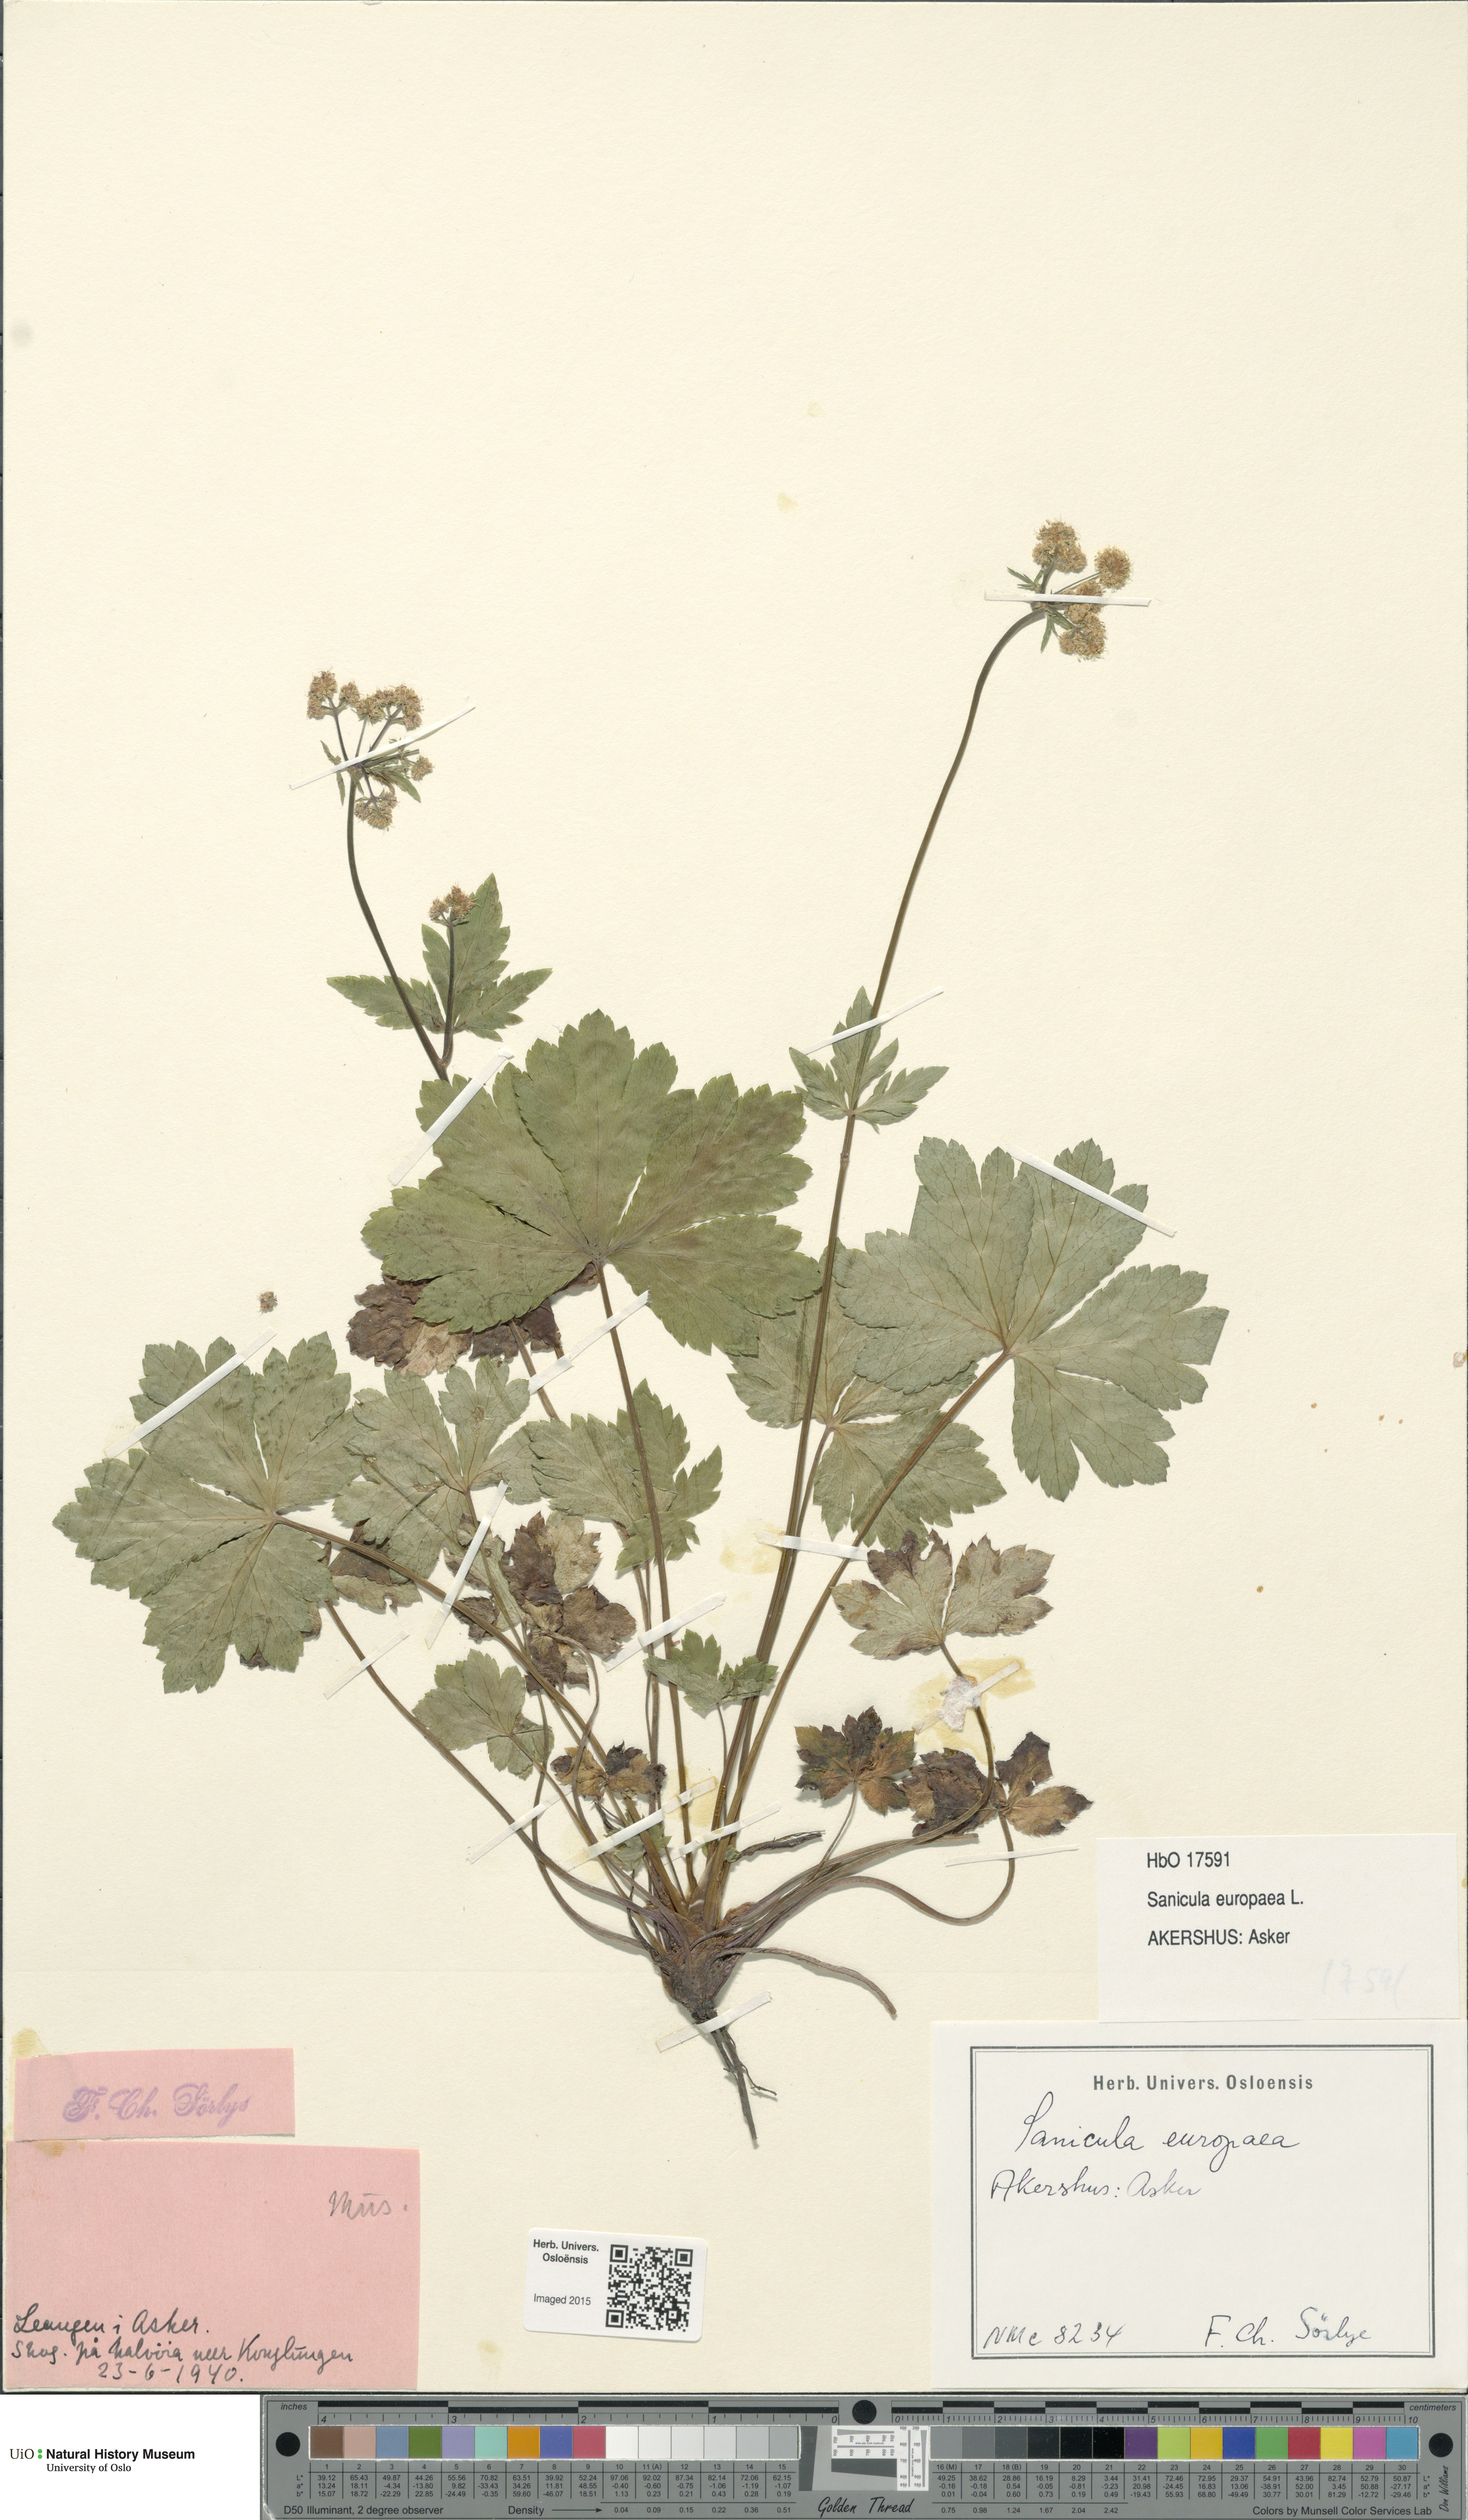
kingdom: Plantae
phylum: Tracheophyta
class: Magnoliopsida
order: Apiales
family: Apiaceae
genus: Sanicula
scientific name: Sanicula europaea
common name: Sanicle
